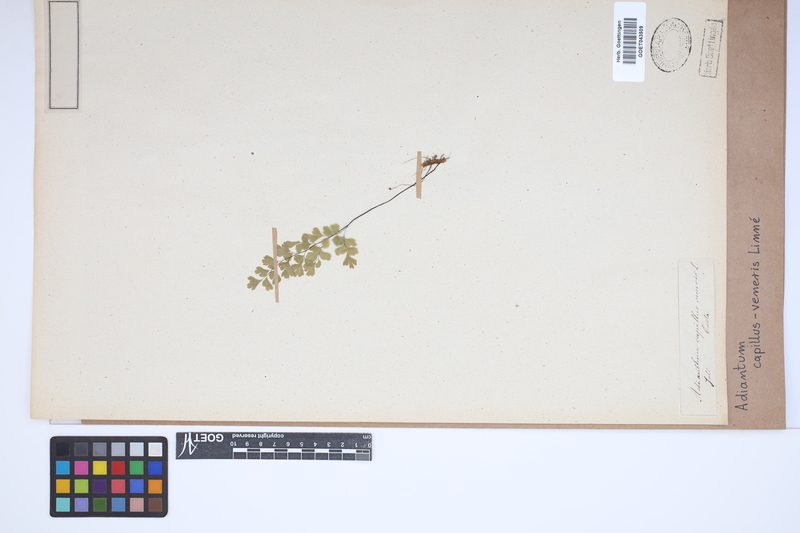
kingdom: Plantae
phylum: Tracheophyta
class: Polypodiopsida
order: Polypodiales
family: Pteridaceae
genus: Adiantum
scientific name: Adiantum capillus-veneris
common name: Maidenhair fern
